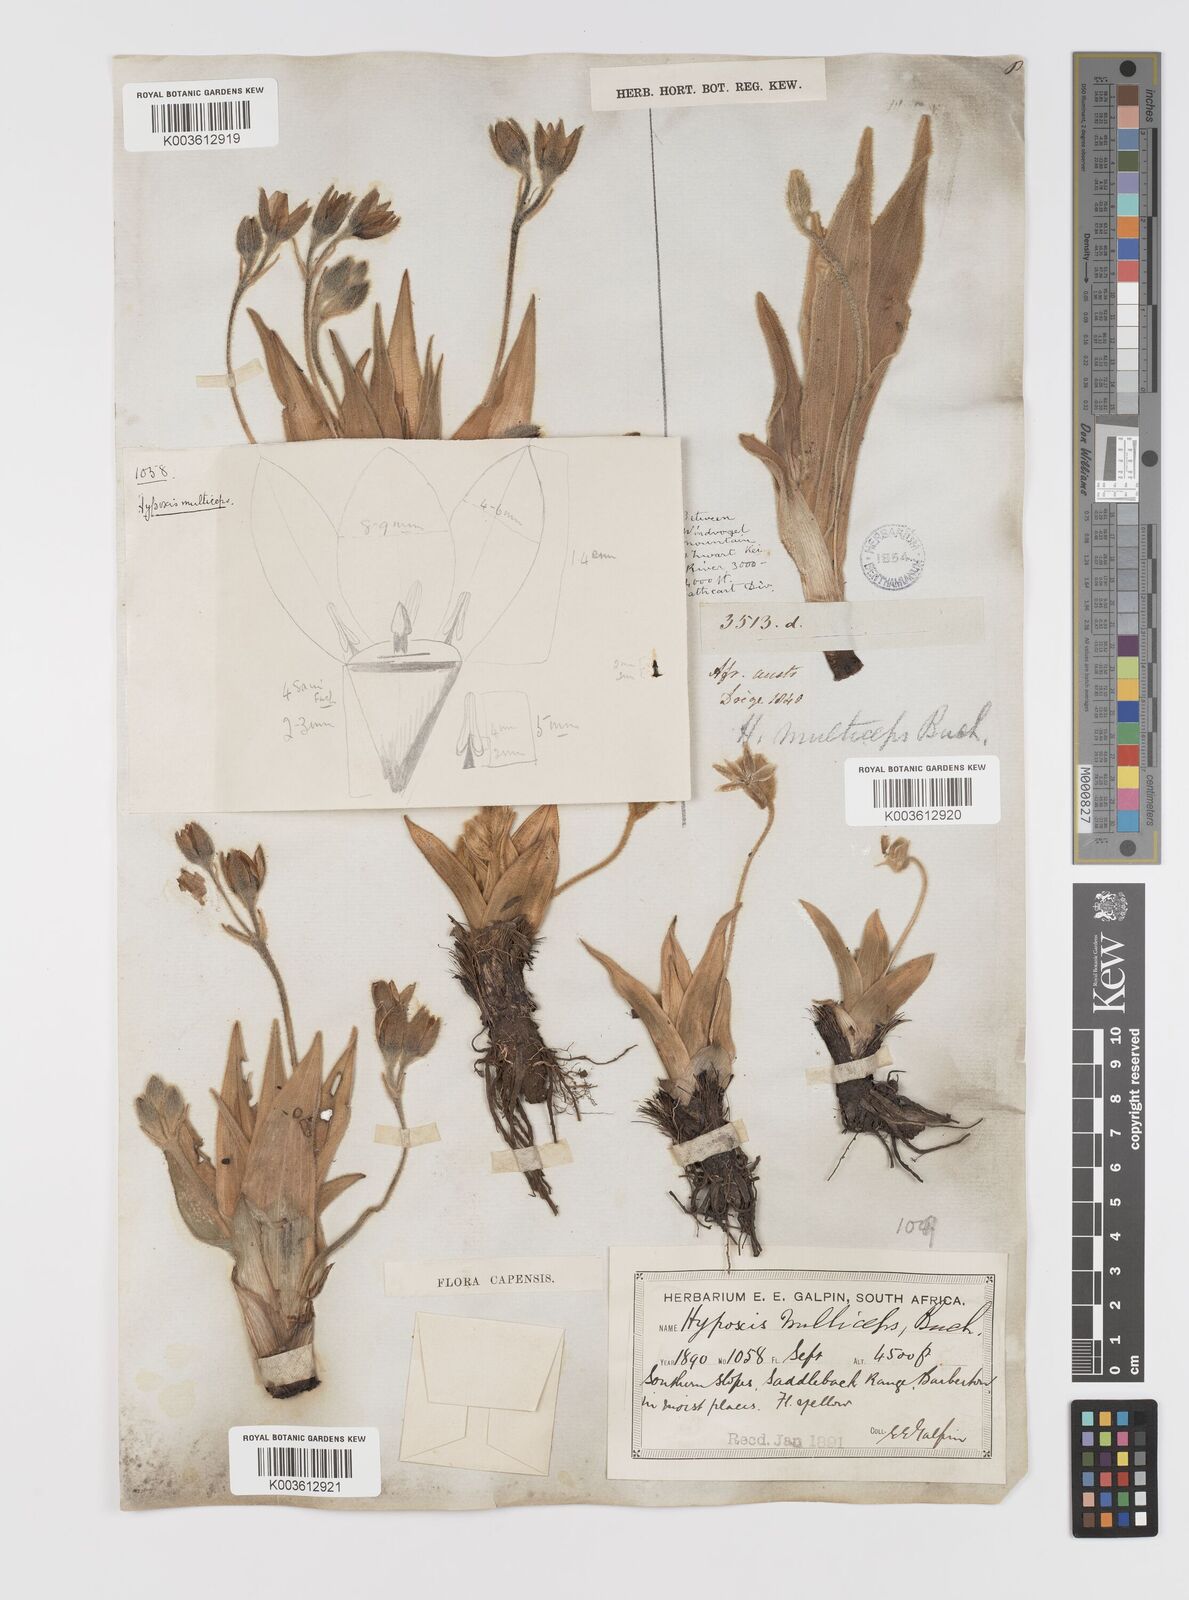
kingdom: Plantae
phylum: Tracheophyta
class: Liliopsida
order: Asparagales
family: Hypoxidaceae
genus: Hypoxis
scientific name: Hypoxis multiceps
